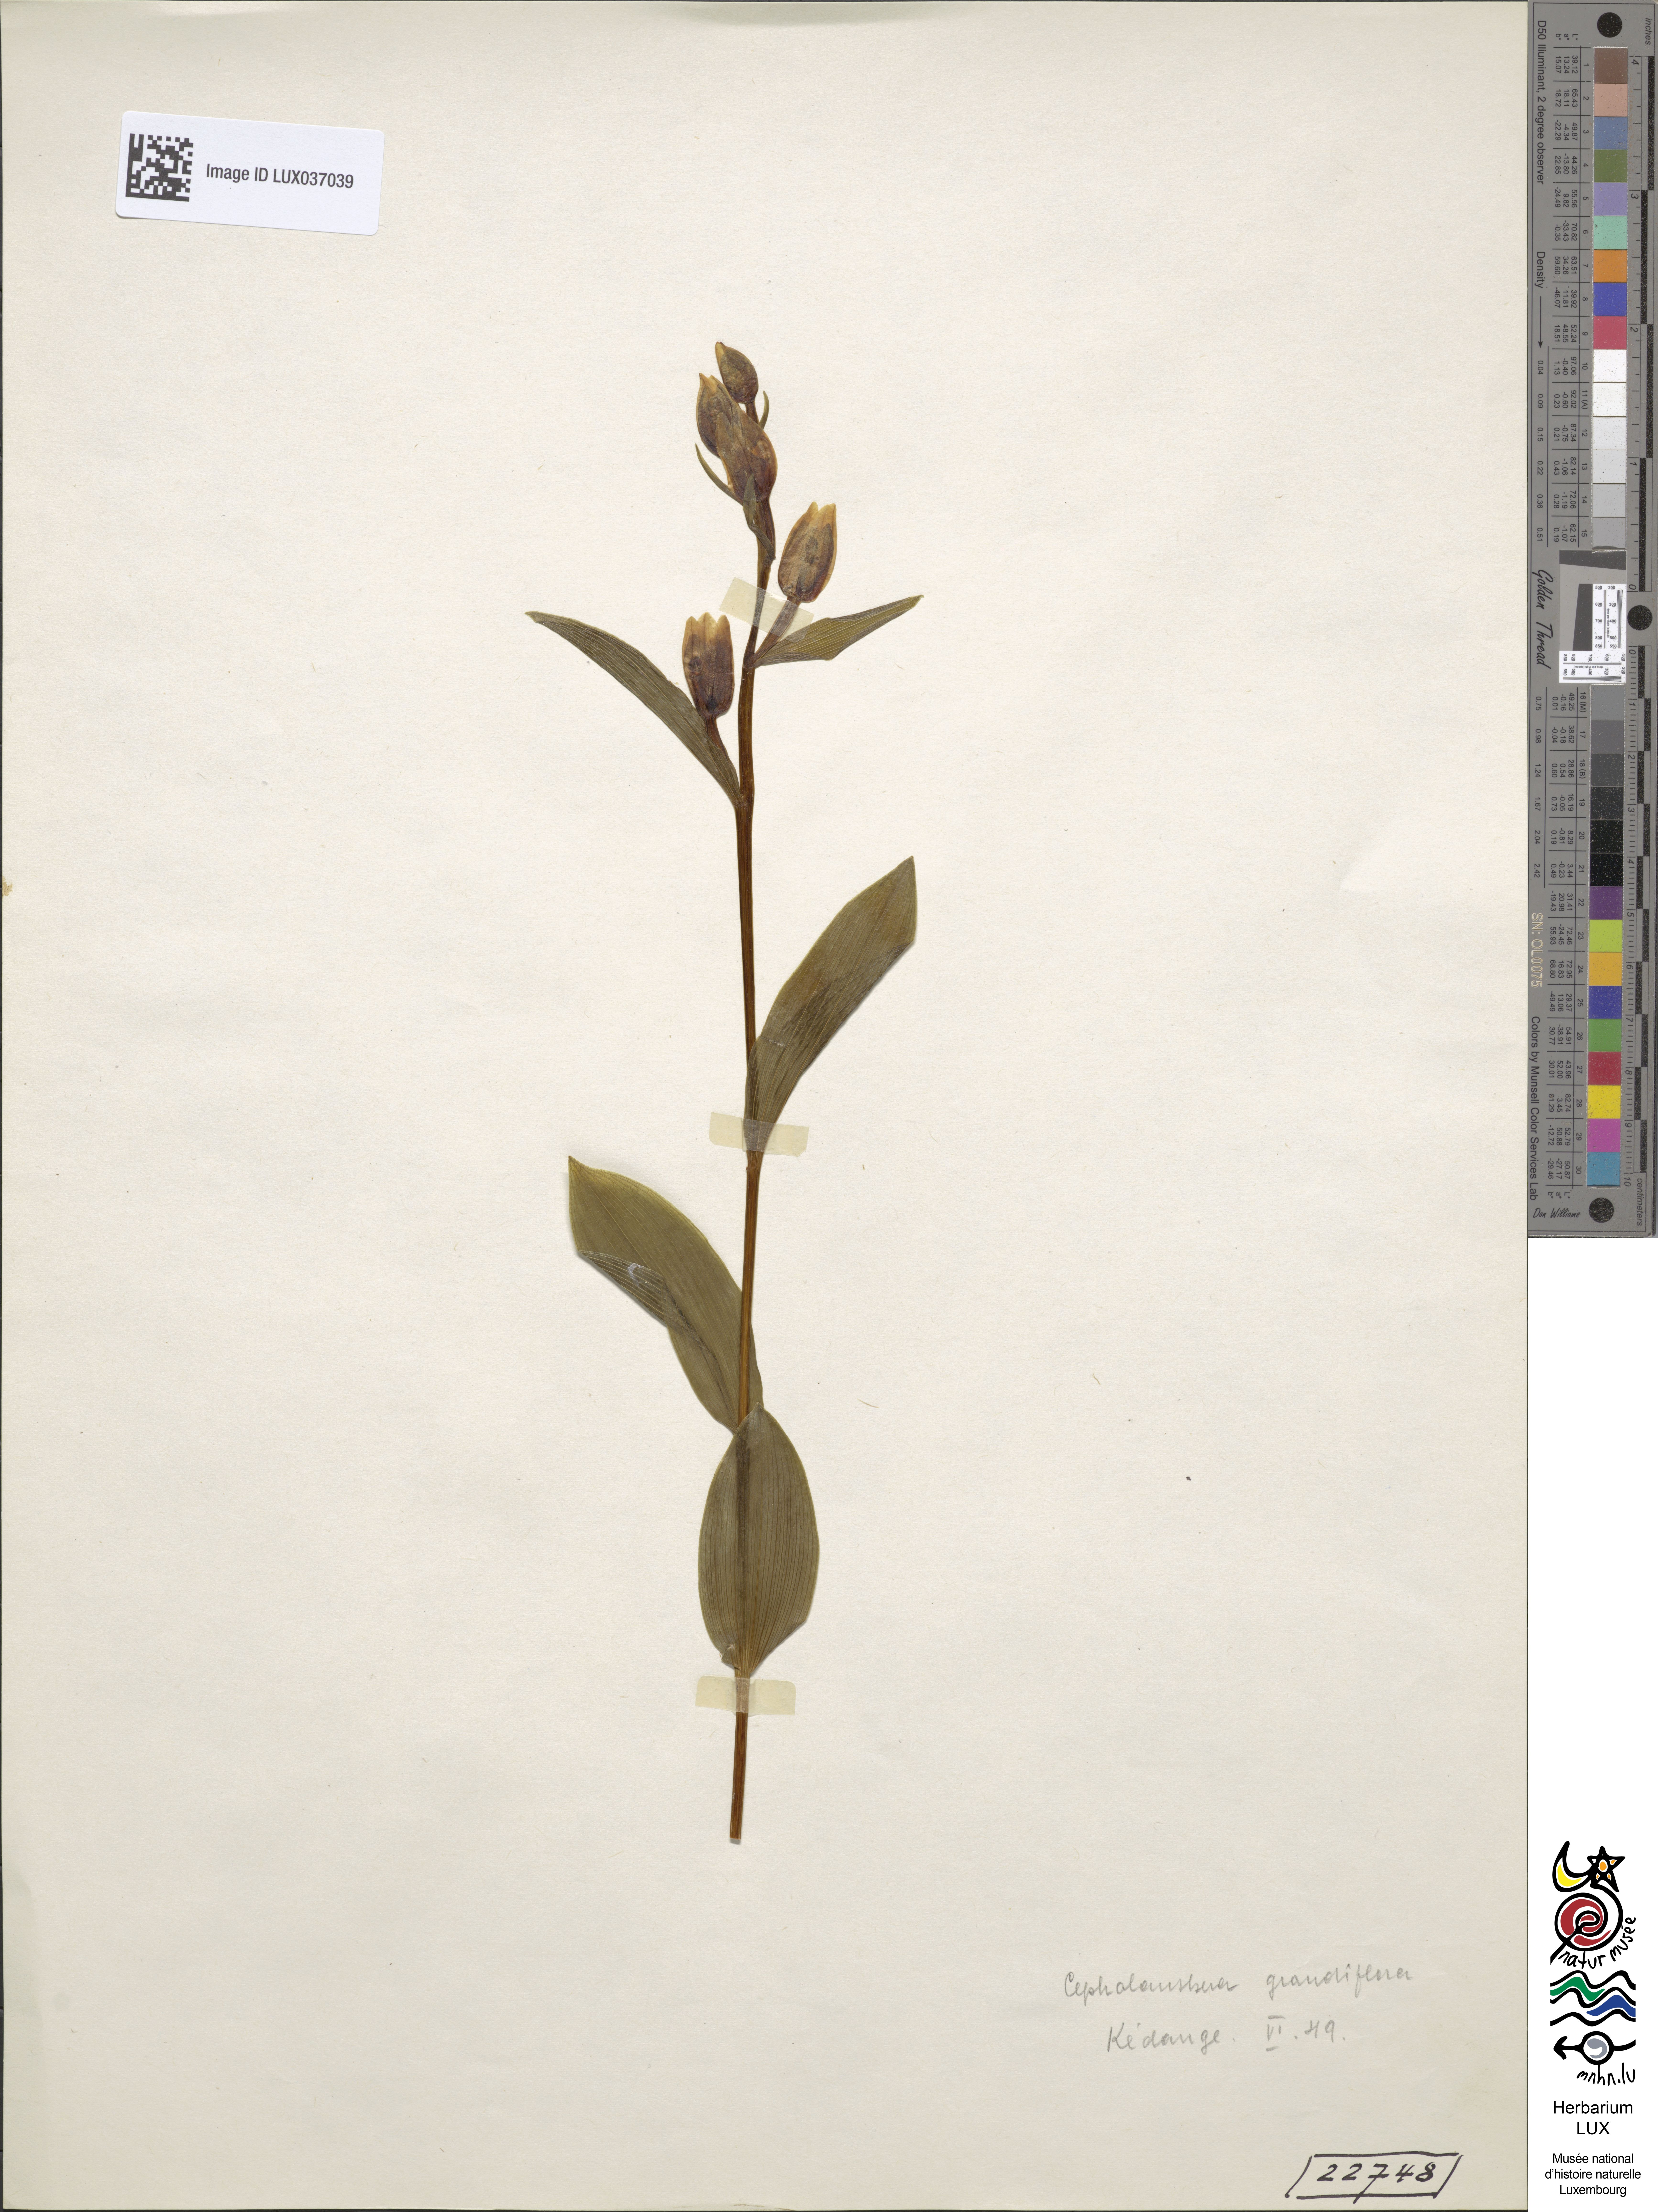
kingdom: Plantae
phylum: Tracheophyta
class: Liliopsida
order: Asparagales
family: Orchidaceae
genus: Cephalanthera
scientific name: Cephalanthera damasonium
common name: White helleborine
